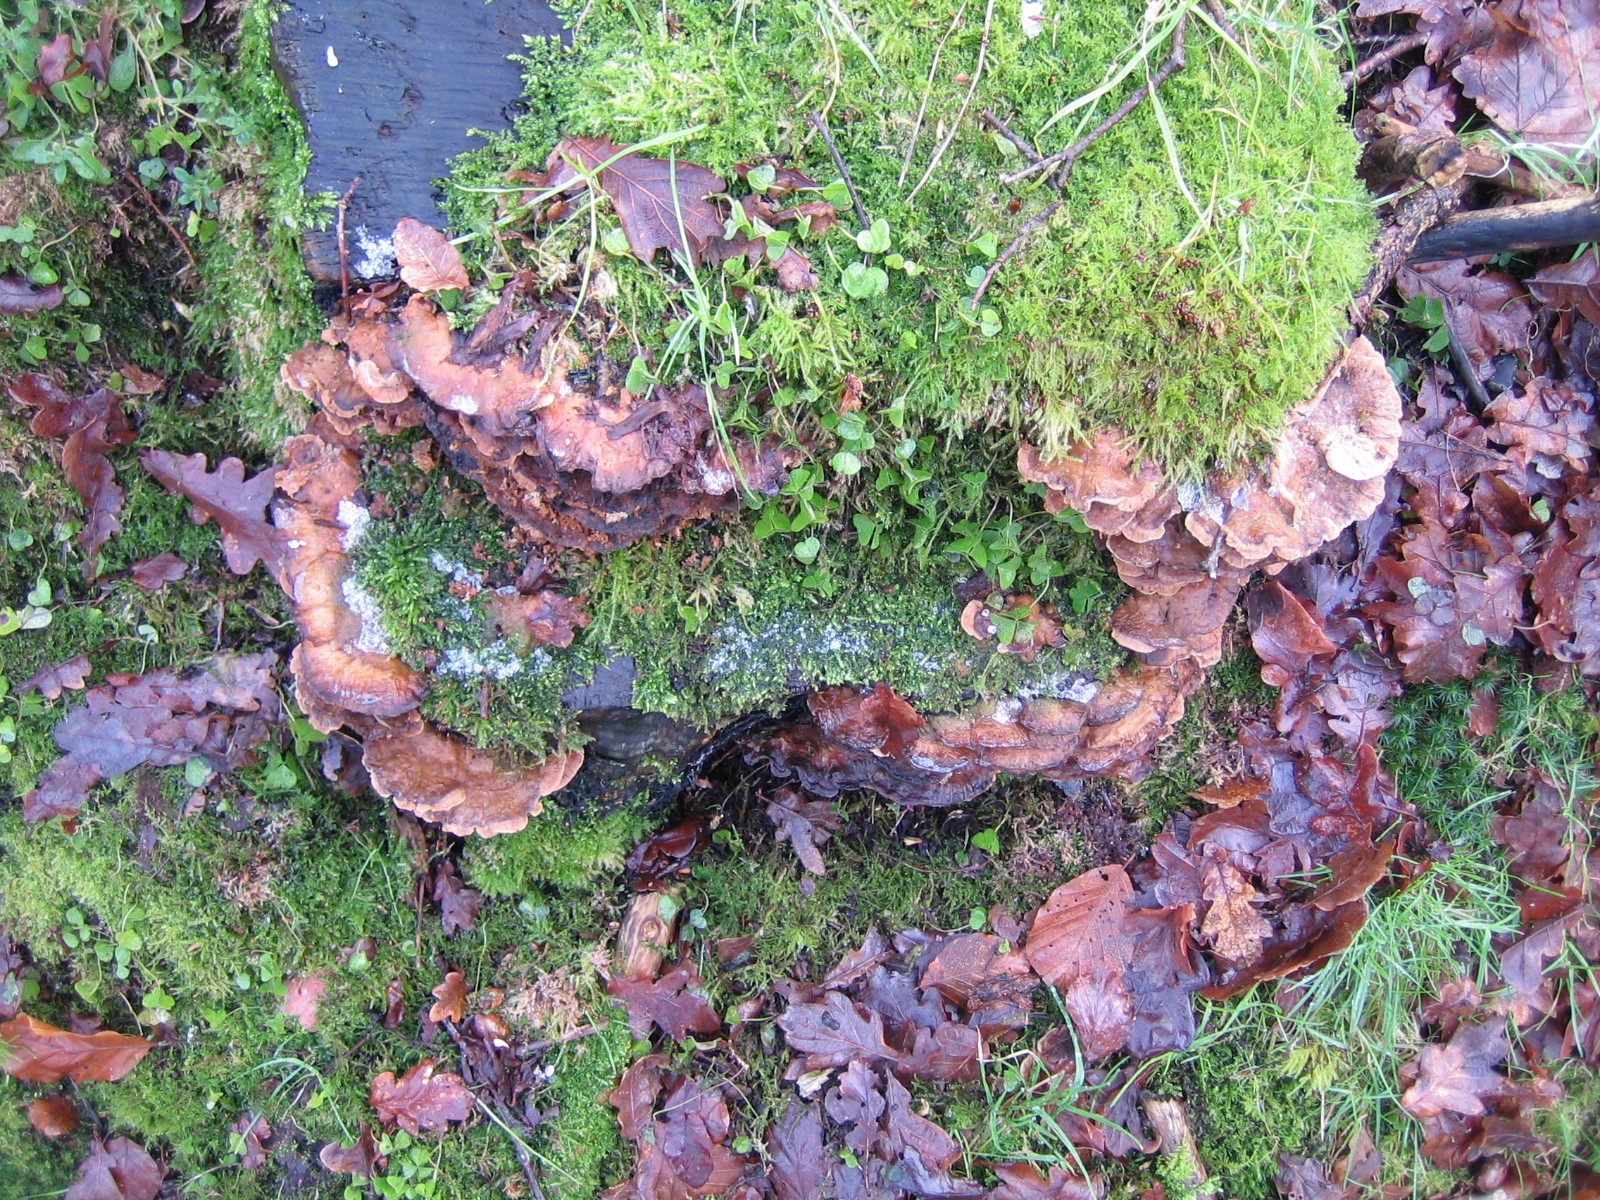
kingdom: Fungi
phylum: Basidiomycota
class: Agaricomycetes
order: Polyporales
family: Phanerochaetaceae
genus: Bjerkandera
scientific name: Bjerkandera fumosa
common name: grågul sodporesvamp
